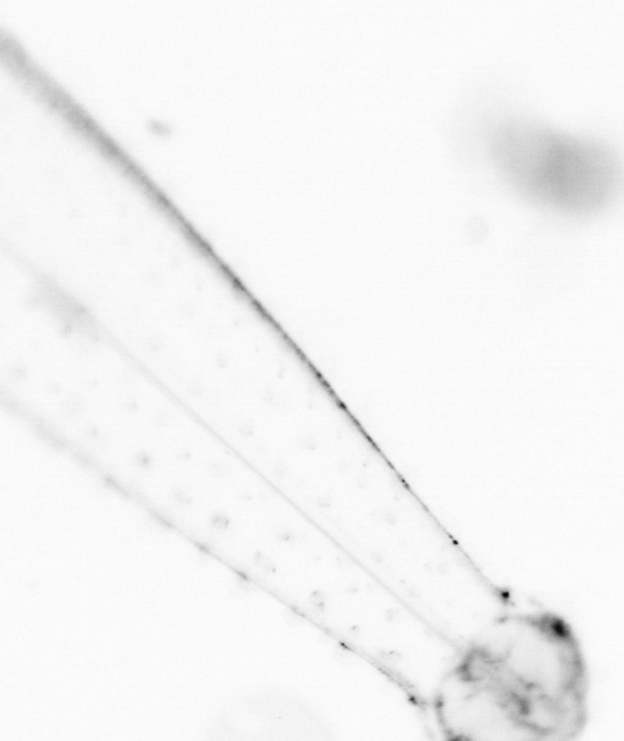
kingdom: Animalia
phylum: Chaetognatha
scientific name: Chaetognatha
